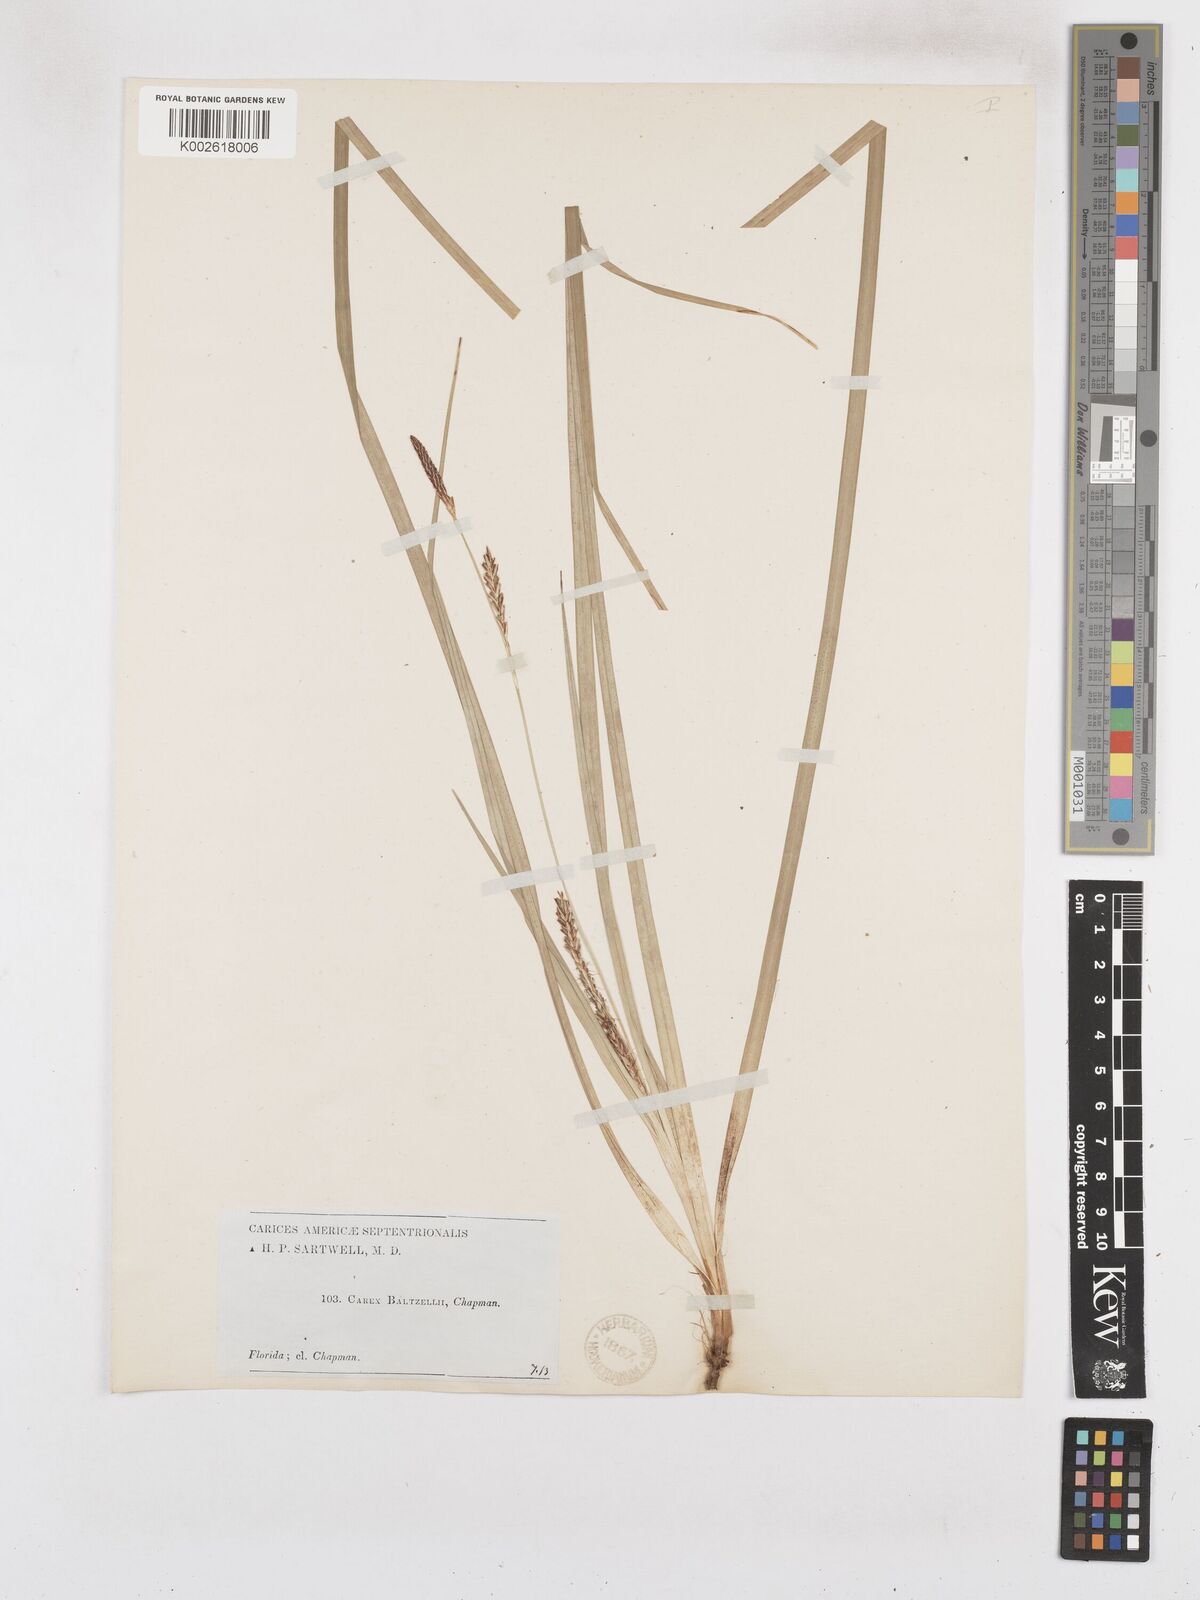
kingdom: Plantae
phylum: Tracheophyta
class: Liliopsida
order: Poales
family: Cyperaceae
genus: Carex
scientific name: Carex baltzellii
